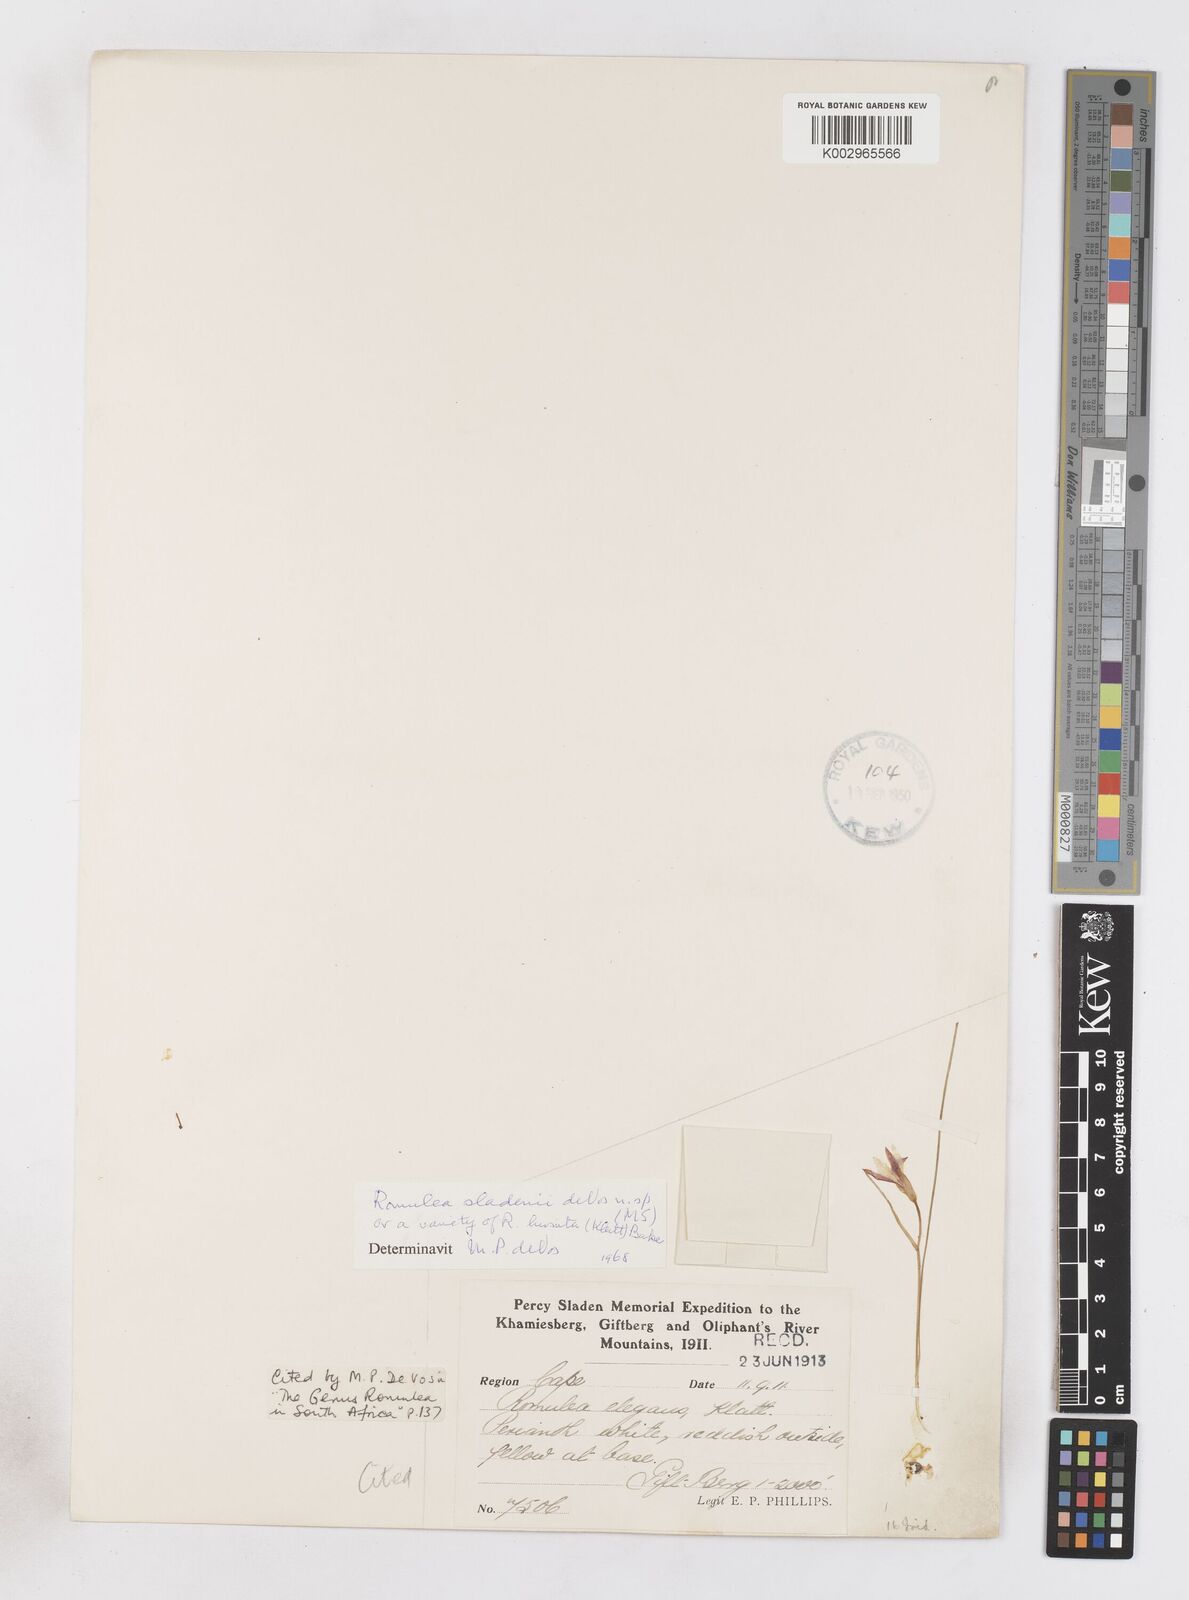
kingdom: Plantae
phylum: Tracheophyta
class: Liliopsida
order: Asparagales
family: Iridaceae
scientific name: Iridaceae
